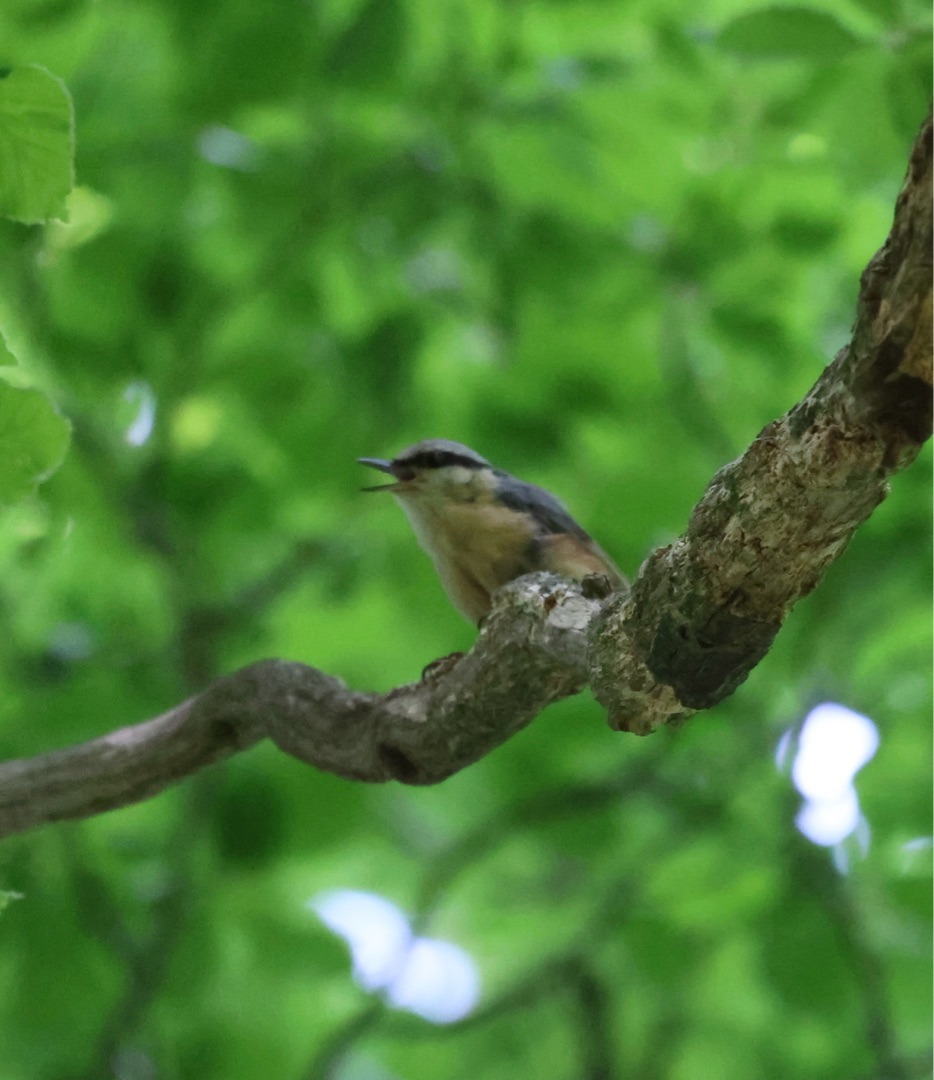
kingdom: Animalia
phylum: Chordata
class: Aves
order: Passeriformes
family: Sittidae
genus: Sitta
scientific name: Sitta europaea
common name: Spætmejse
